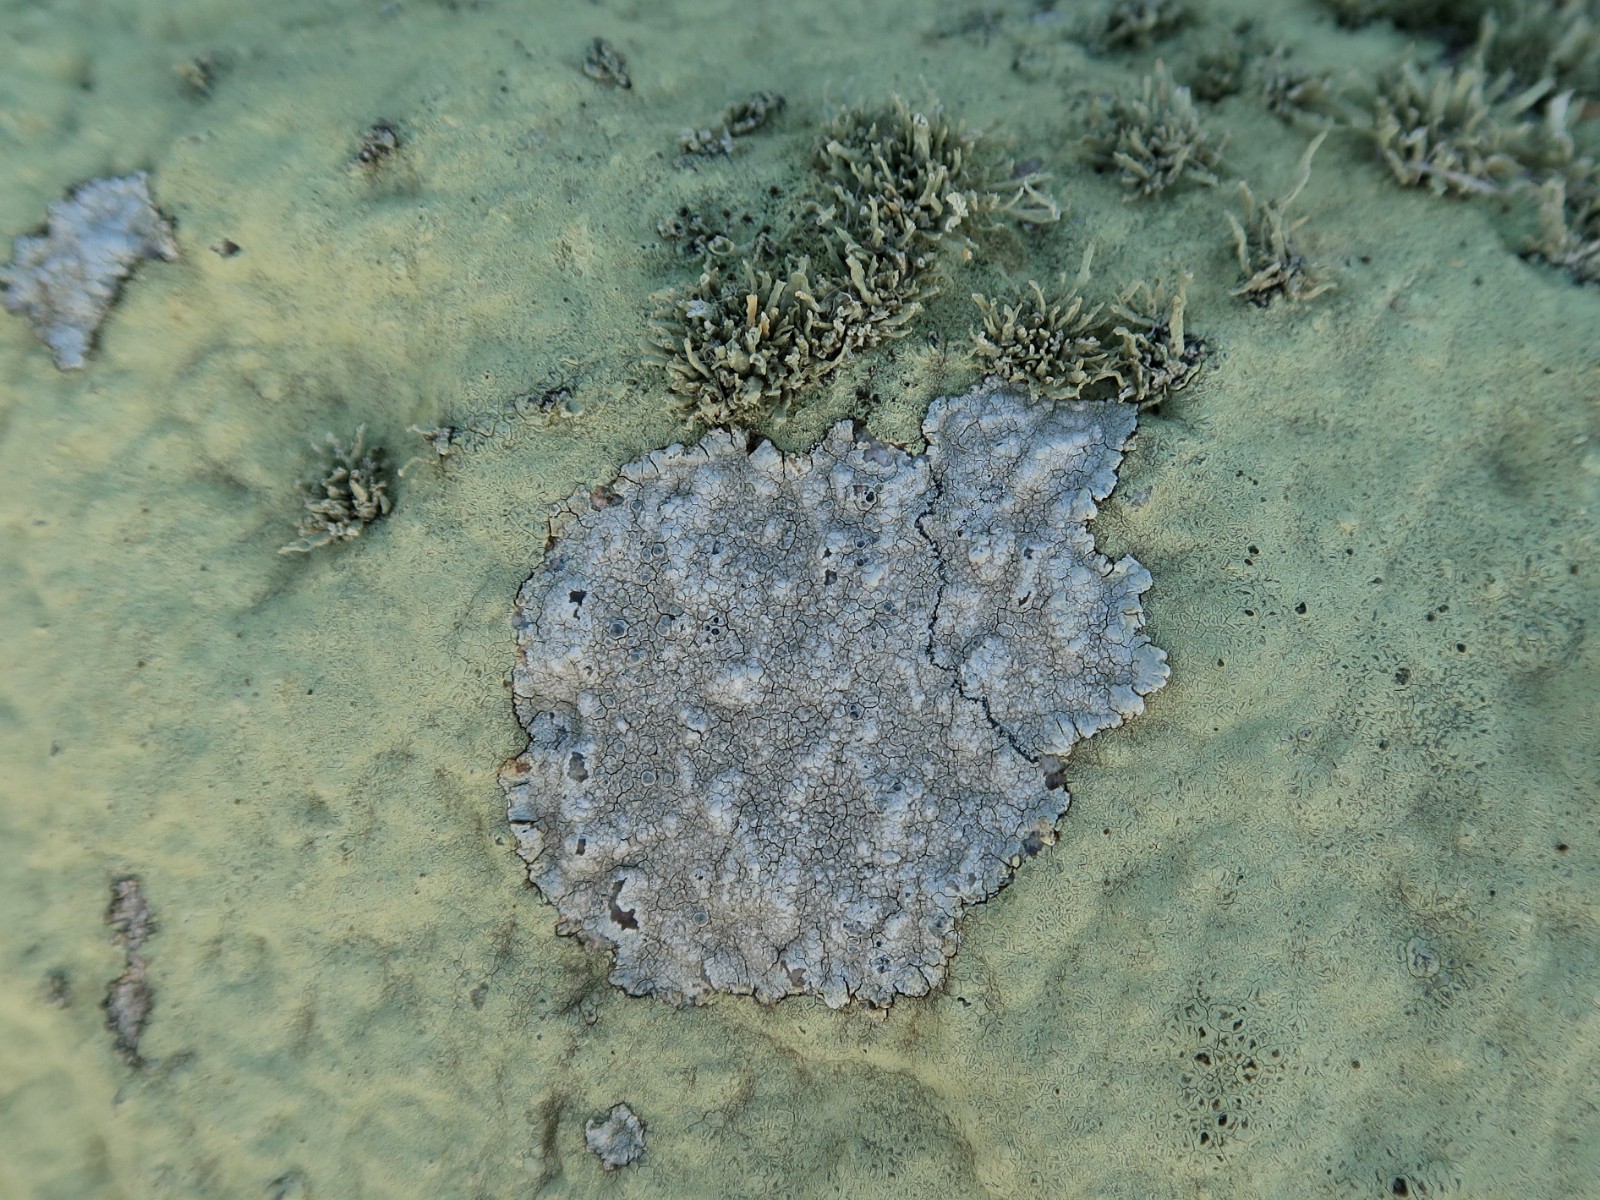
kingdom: Fungi
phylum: Ascomycota
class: Lecanoromycetes
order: Lecanorales
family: Lecanoraceae
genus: Glaucomaria
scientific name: Glaucomaria rupicola
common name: stengærde-kantskivelav
